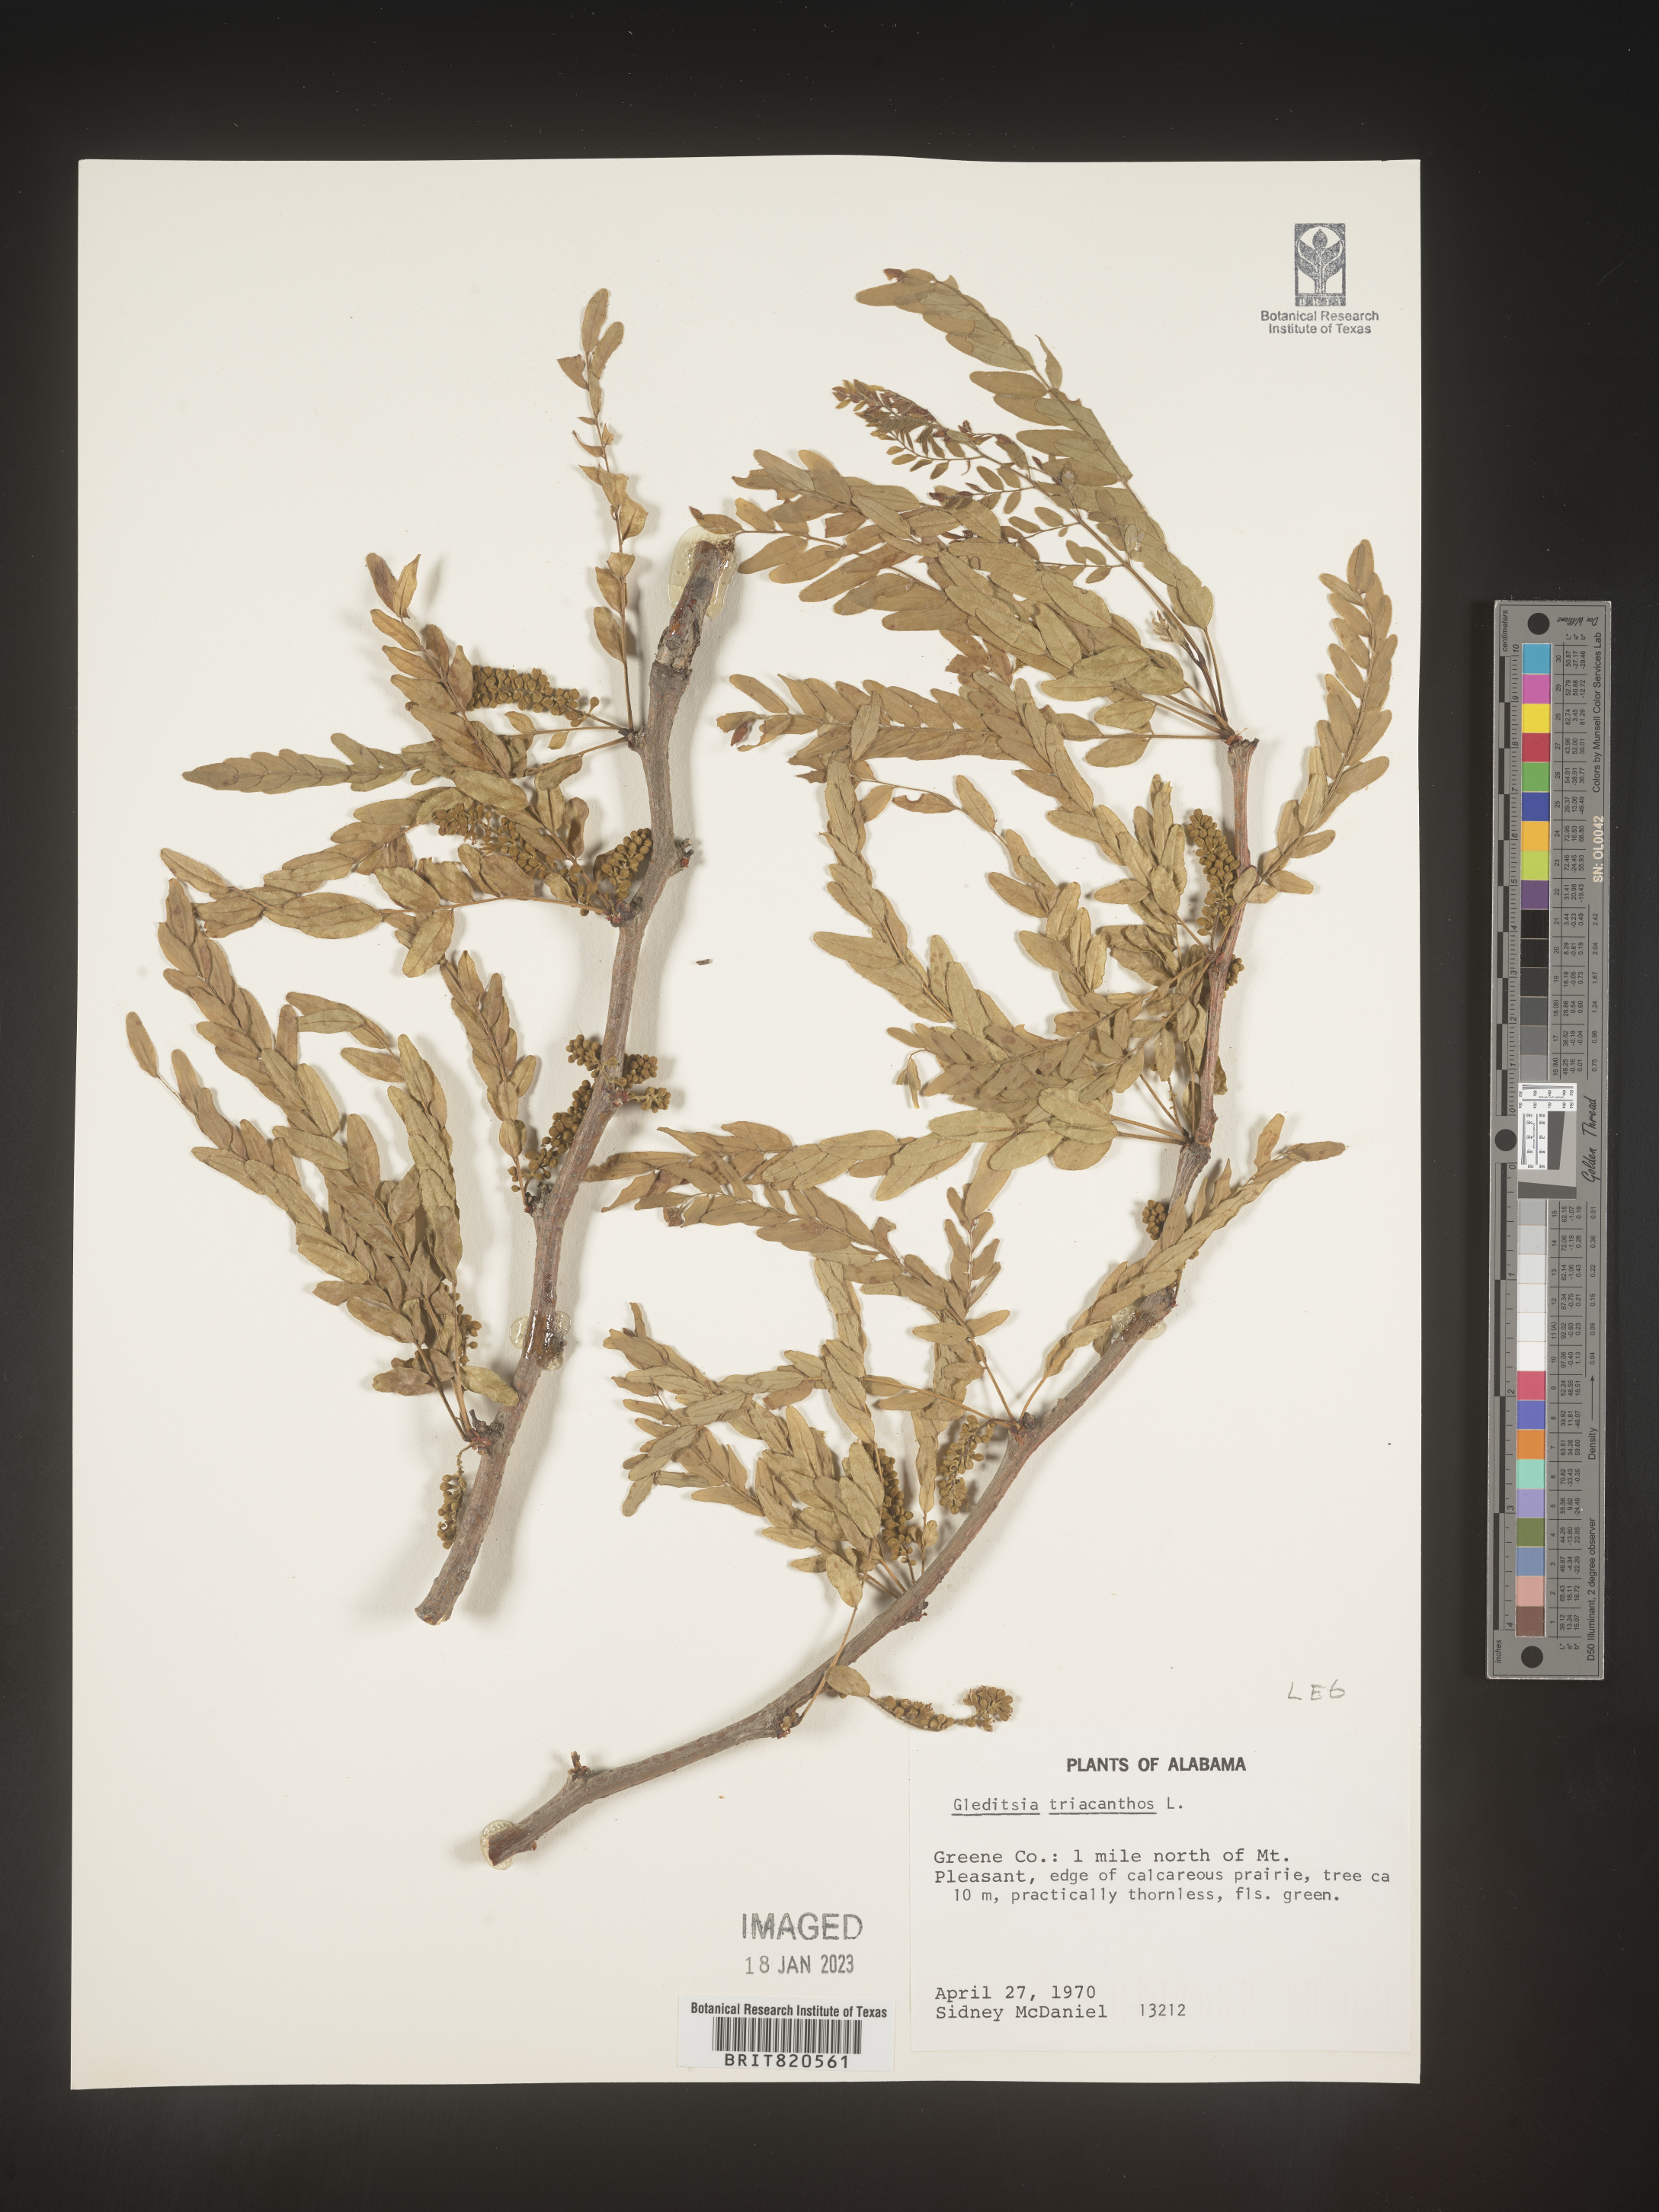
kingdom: Plantae
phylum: Tracheophyta
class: Magnoliopsida
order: Fabales
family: Fabaceae
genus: Gleditsia
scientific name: Gleditsia triacanthos
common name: Common honeylocust
